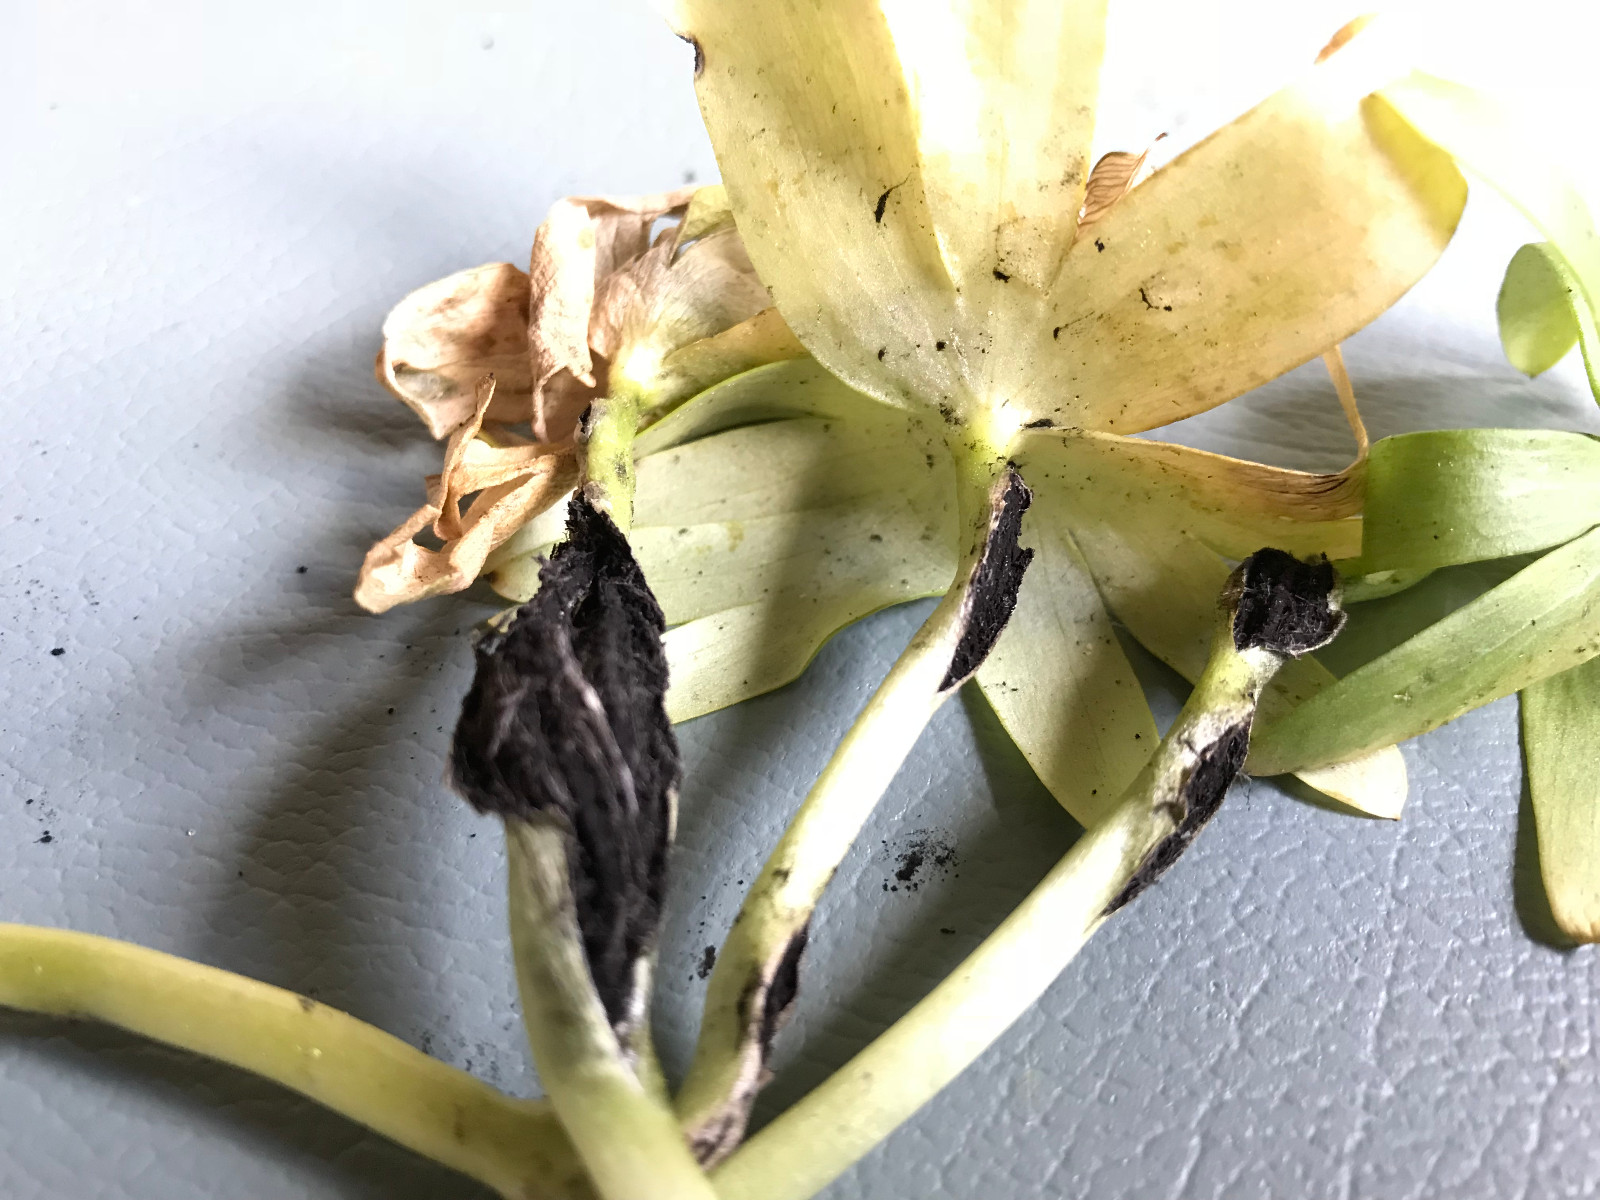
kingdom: Fungi
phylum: Basidiomycota
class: Ustilaginomycetes
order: Urocystidales
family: Urocystidaceae
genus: Urocystis
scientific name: Urocystis eranthidis
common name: erantis-brand
